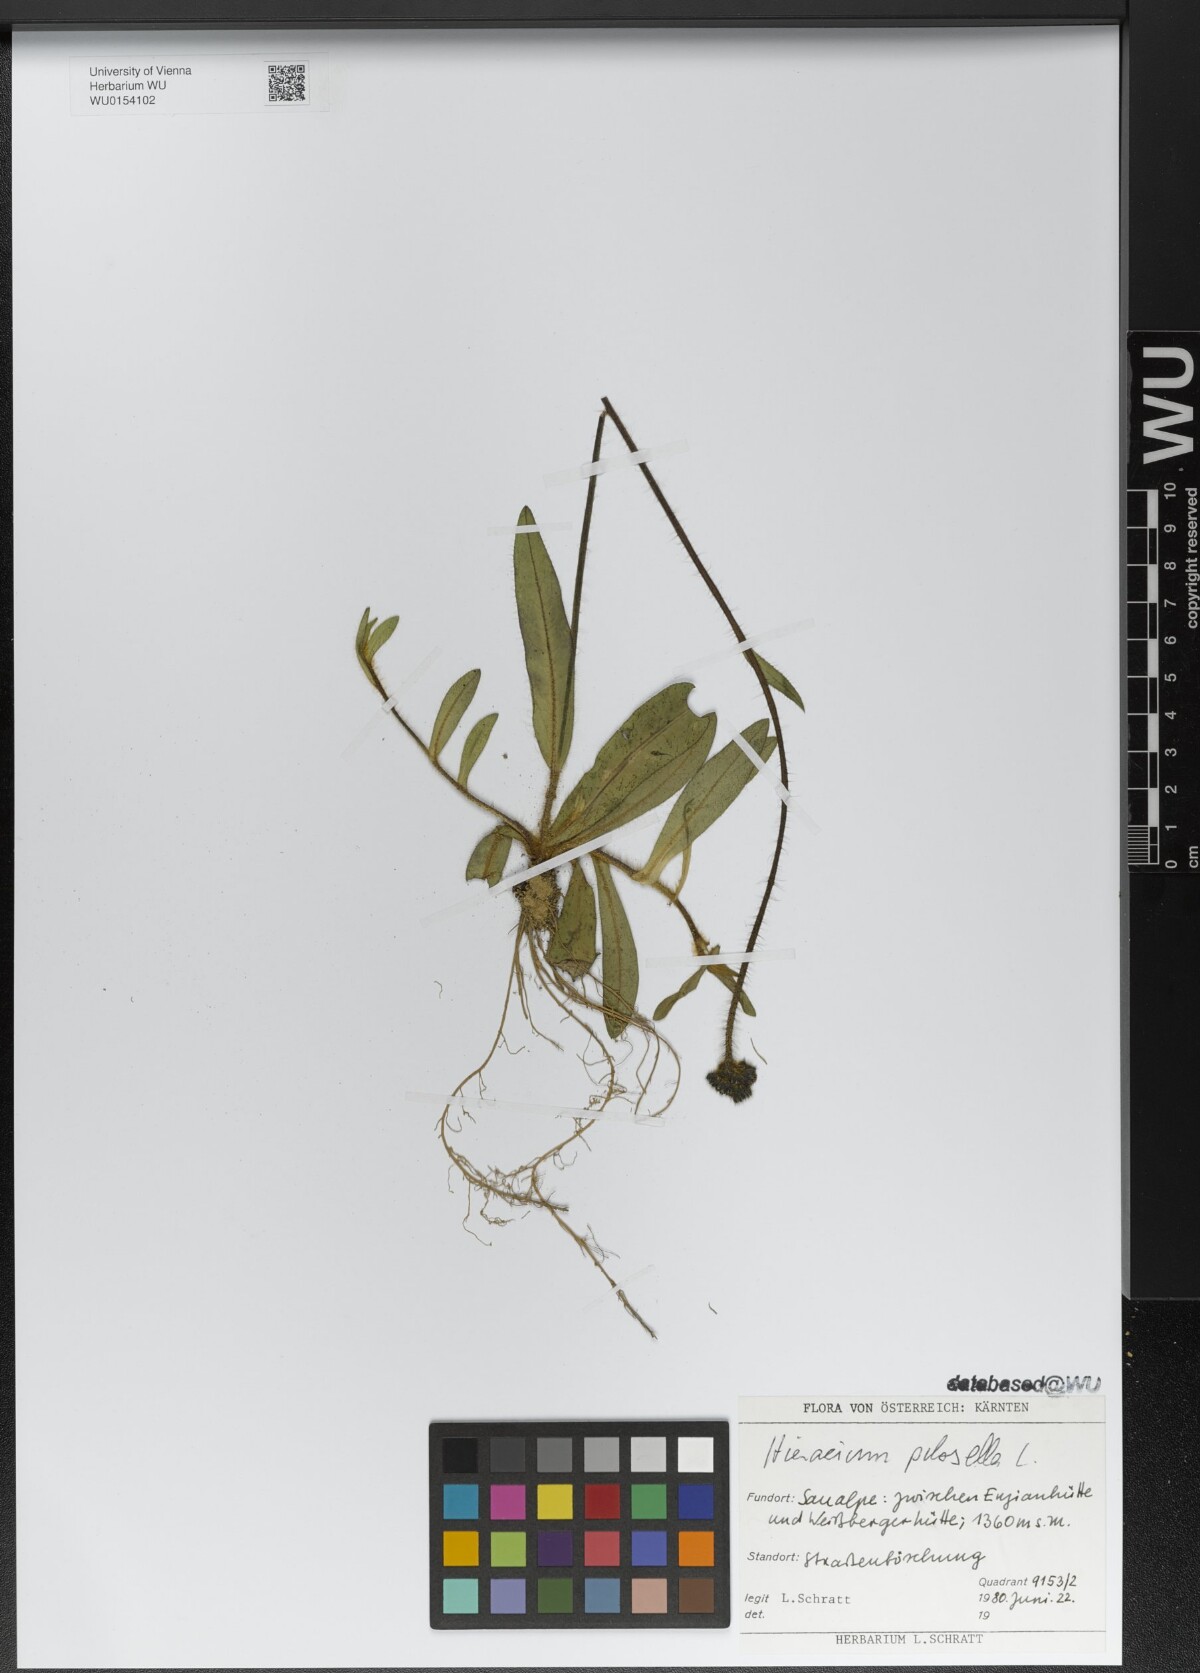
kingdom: Plantae
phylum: Tracheophyta
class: Magnoliopsida
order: Asterales
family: Asteraceae
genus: Pilosella
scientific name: Pilosella officinarum
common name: Mouse-ear hawkweed
